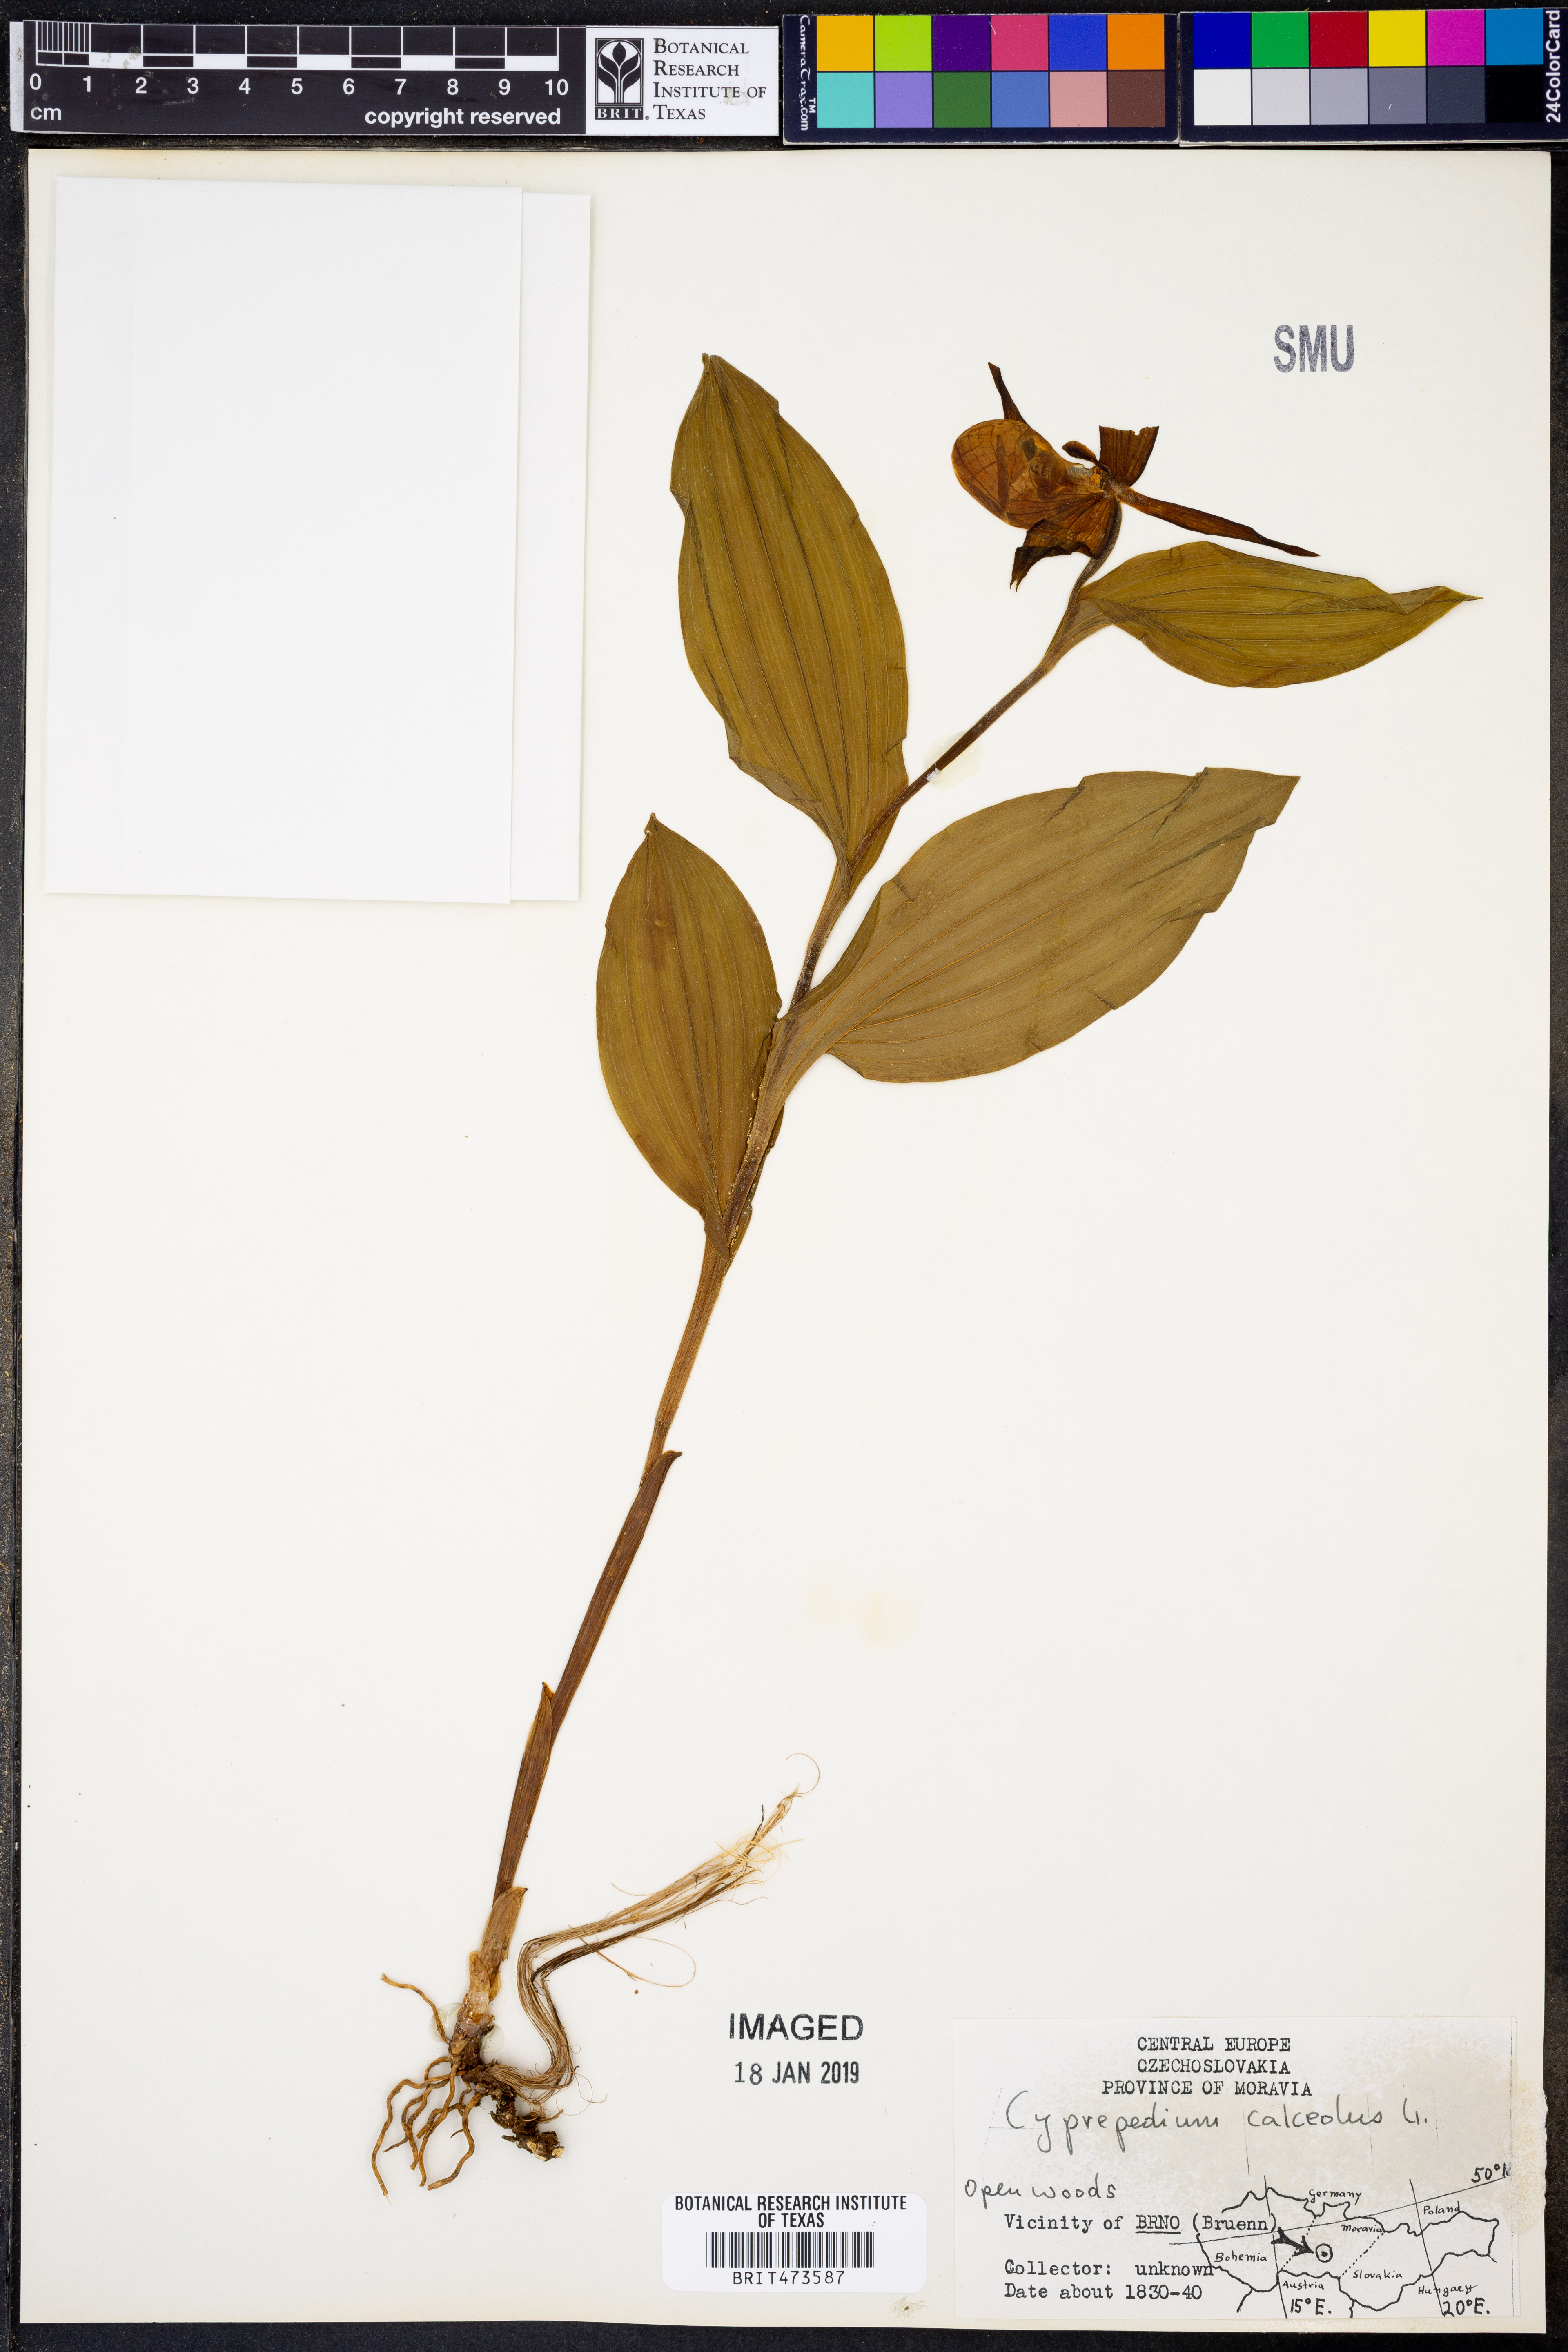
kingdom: Plantae
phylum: Tracheophyta
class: Liliopsida
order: Asparagales
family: Orchidaceae
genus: Cypripedium
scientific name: Cypripedium calceolus
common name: Lady's-slipper
